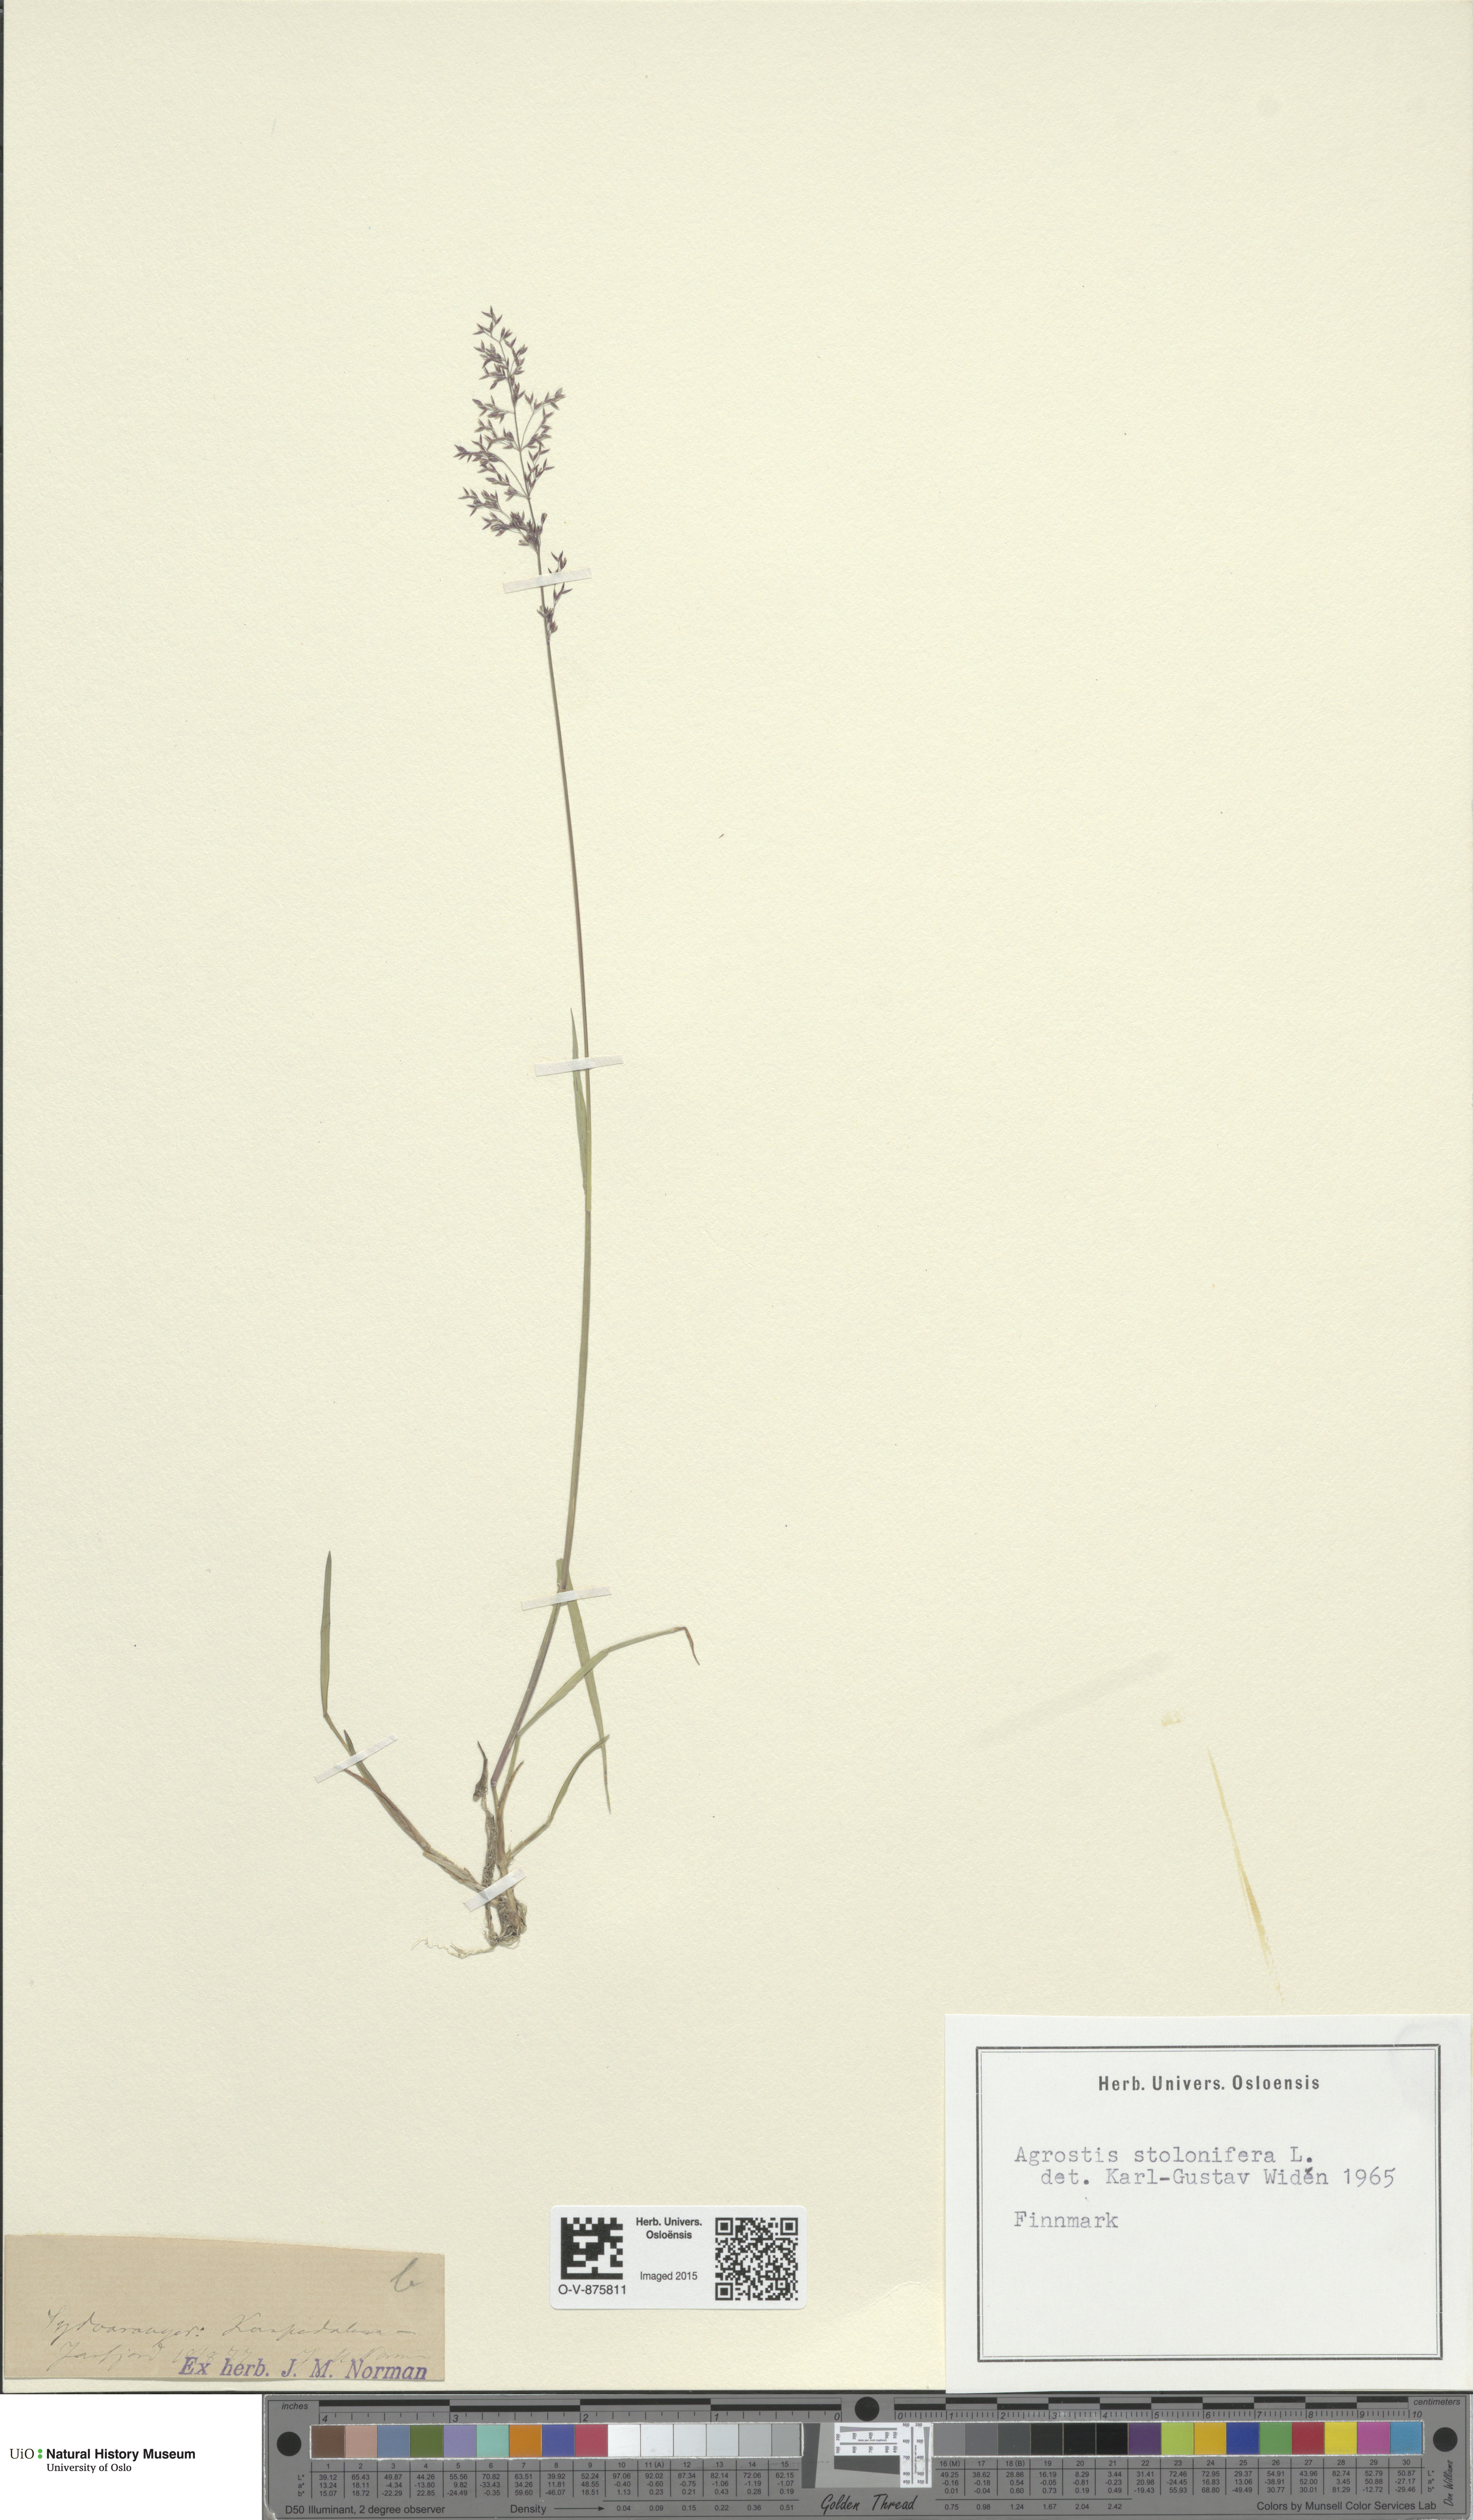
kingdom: Plantae
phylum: Tracheophyta
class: Liliopsida
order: Poales
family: Poaceae
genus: Agrostis
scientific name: Agrostis stolonifera
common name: Creeping bentgrass
